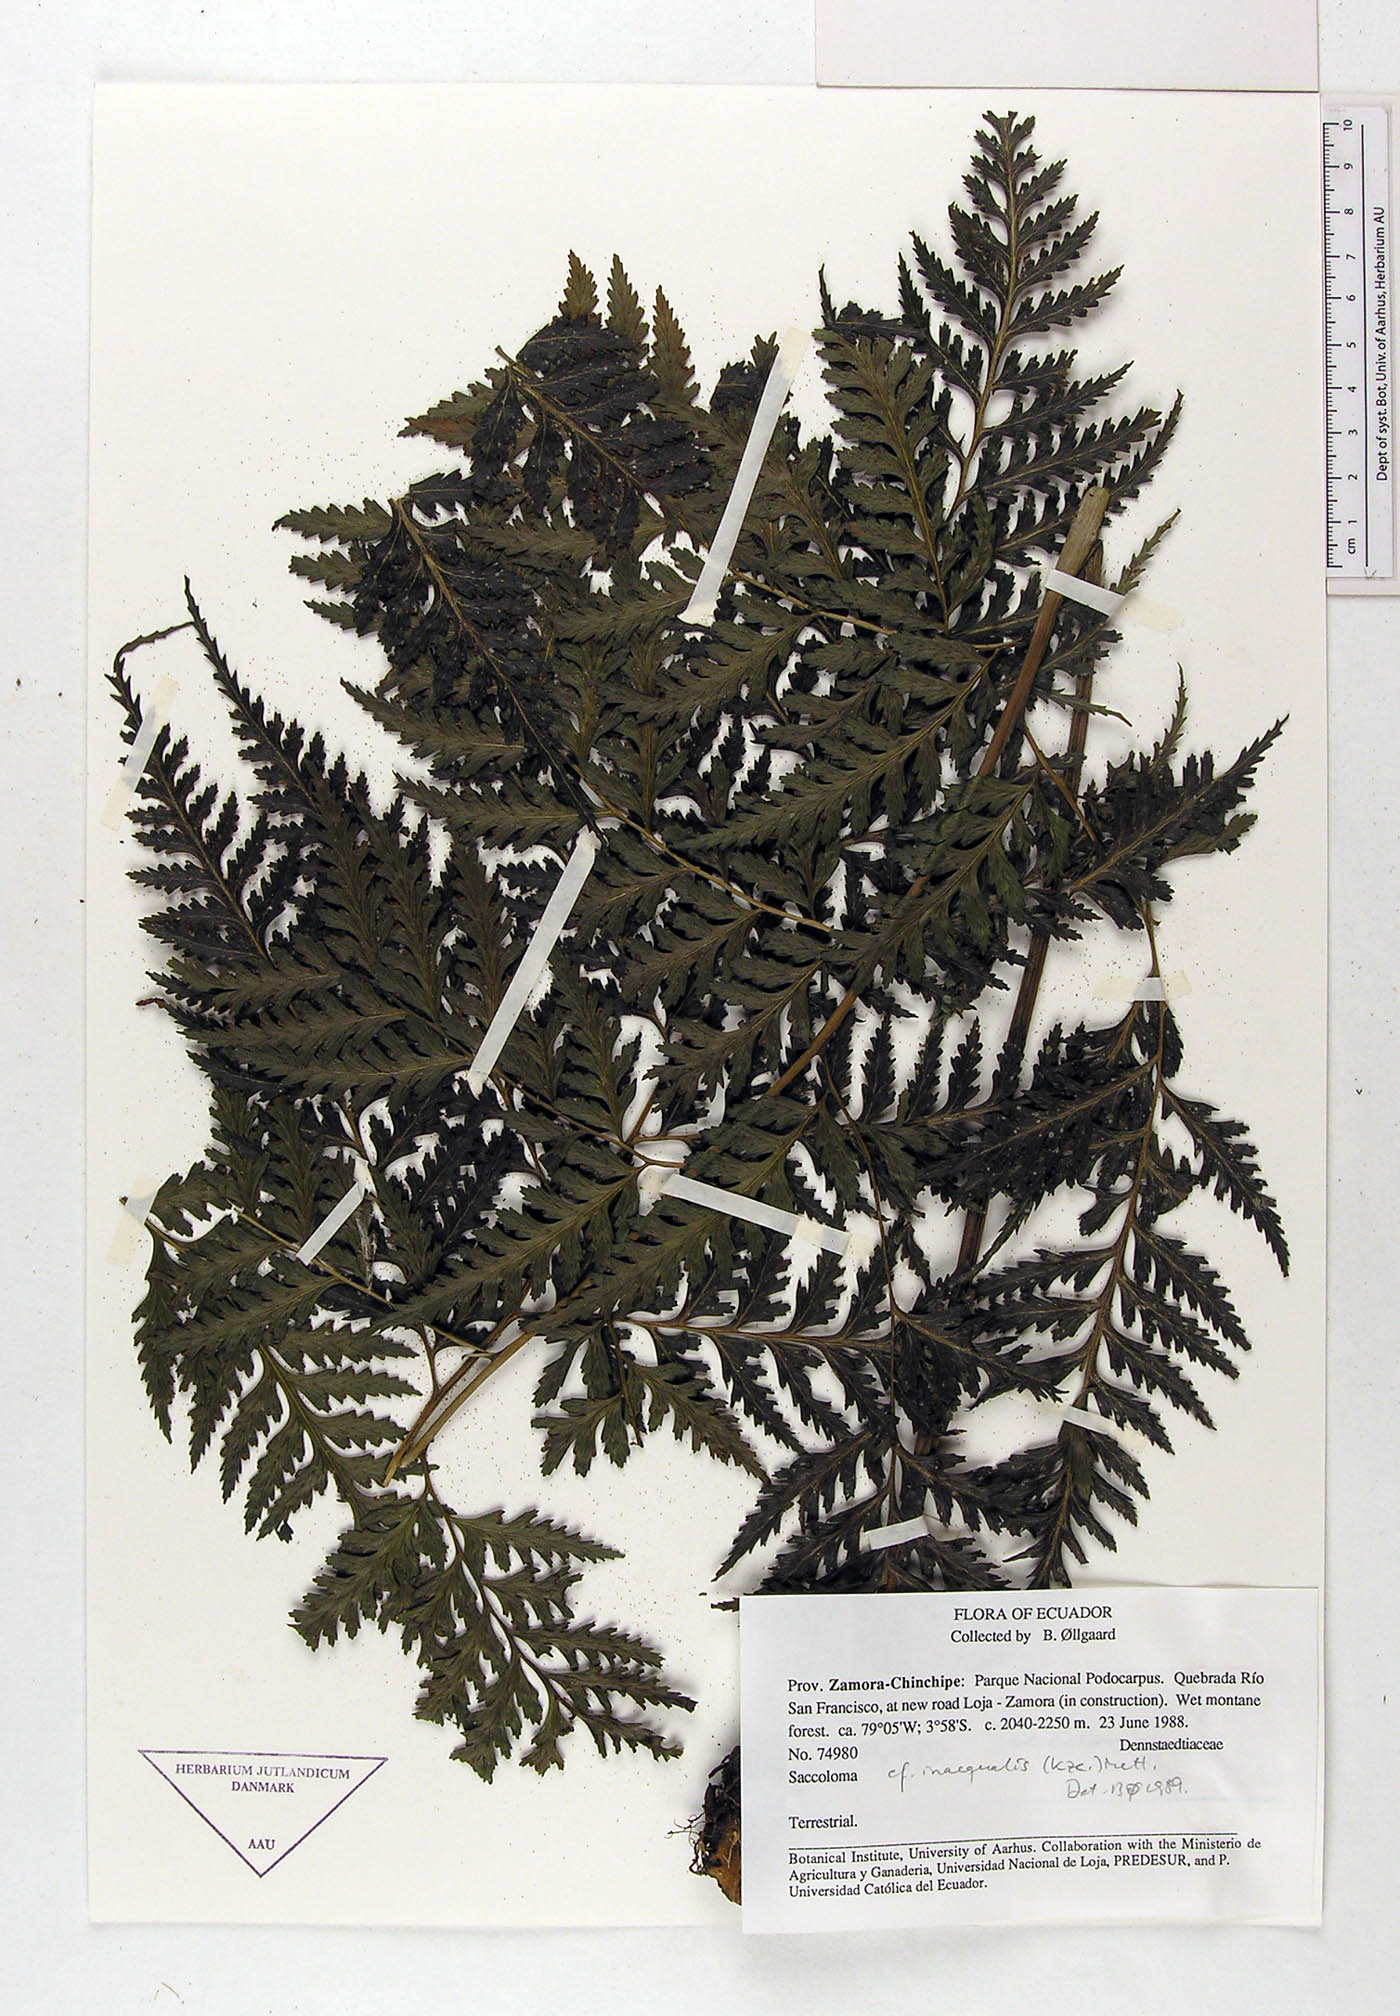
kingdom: Plantae
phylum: Tracheophyta
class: Polypodiopsida
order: Polypodiales
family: Saccolomataceae
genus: Saccoloma
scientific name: Saccoloma inaequale
